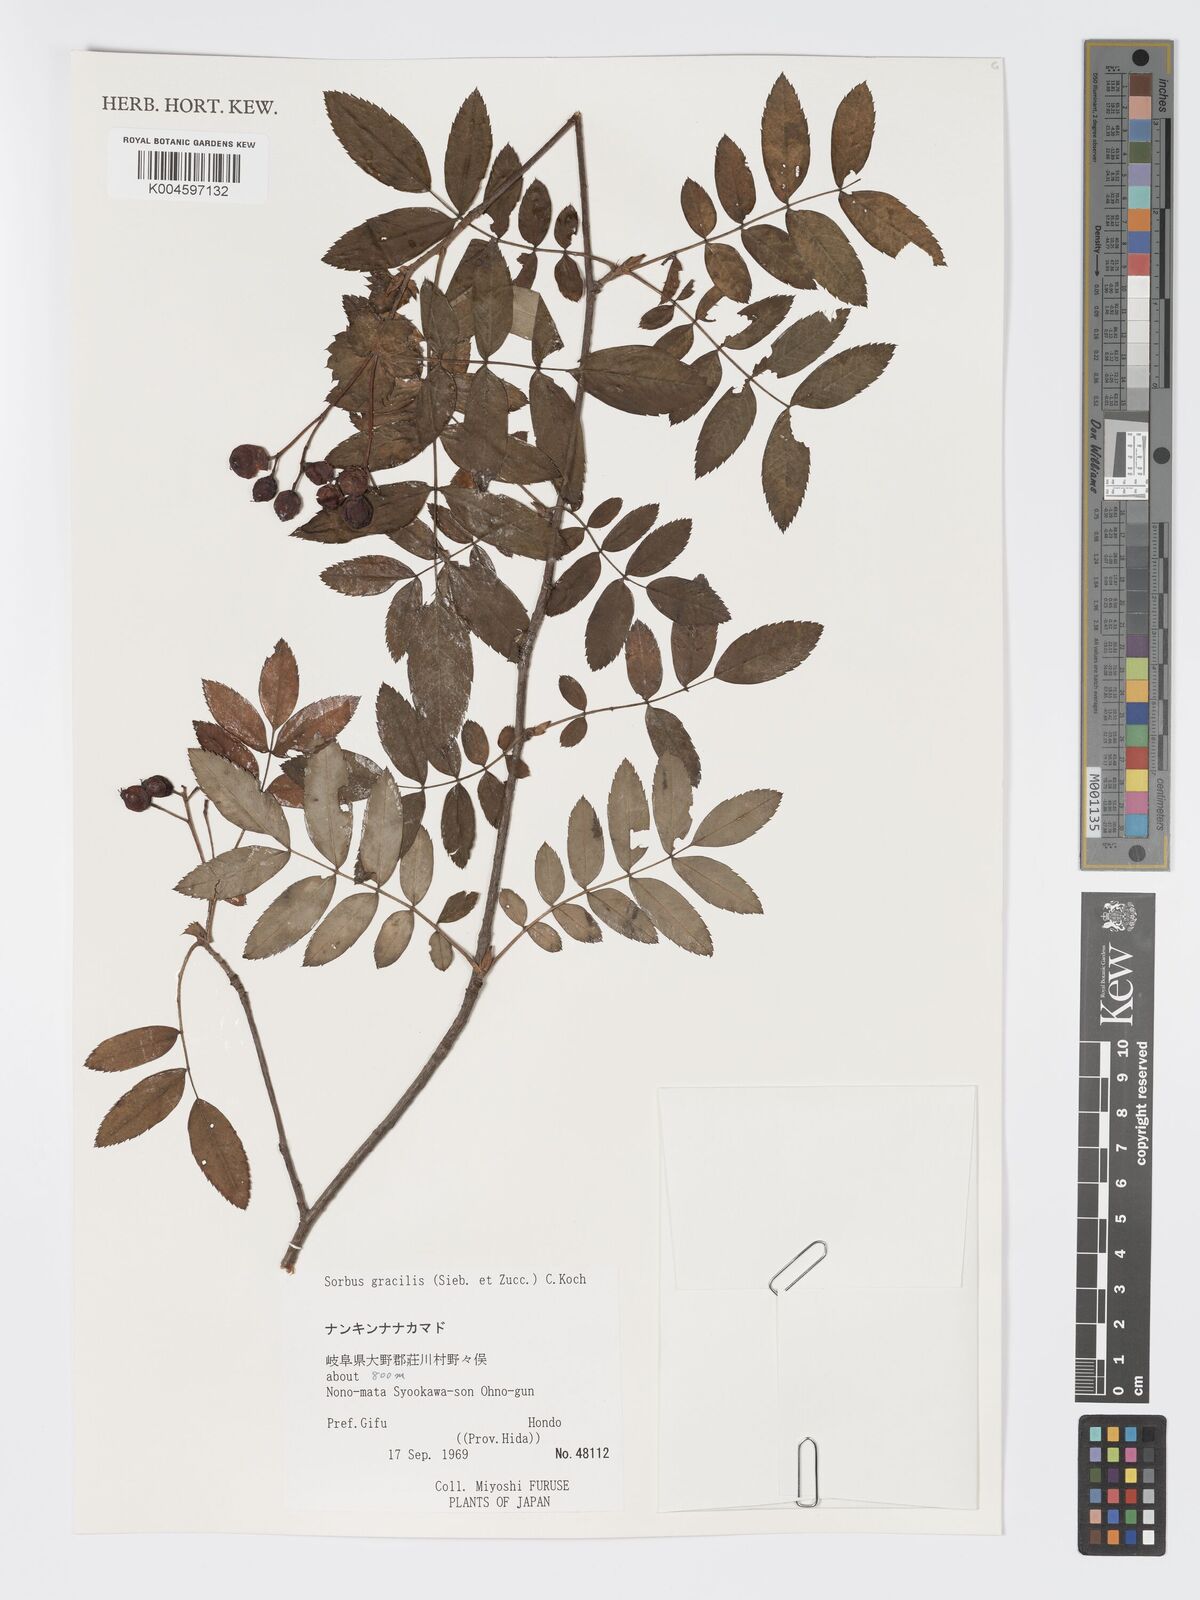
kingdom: Plantae
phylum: Tracheophyta
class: Magnoliopsida
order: Rosales
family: Rosaceae
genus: Sorbus
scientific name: Sorbus gracilis
